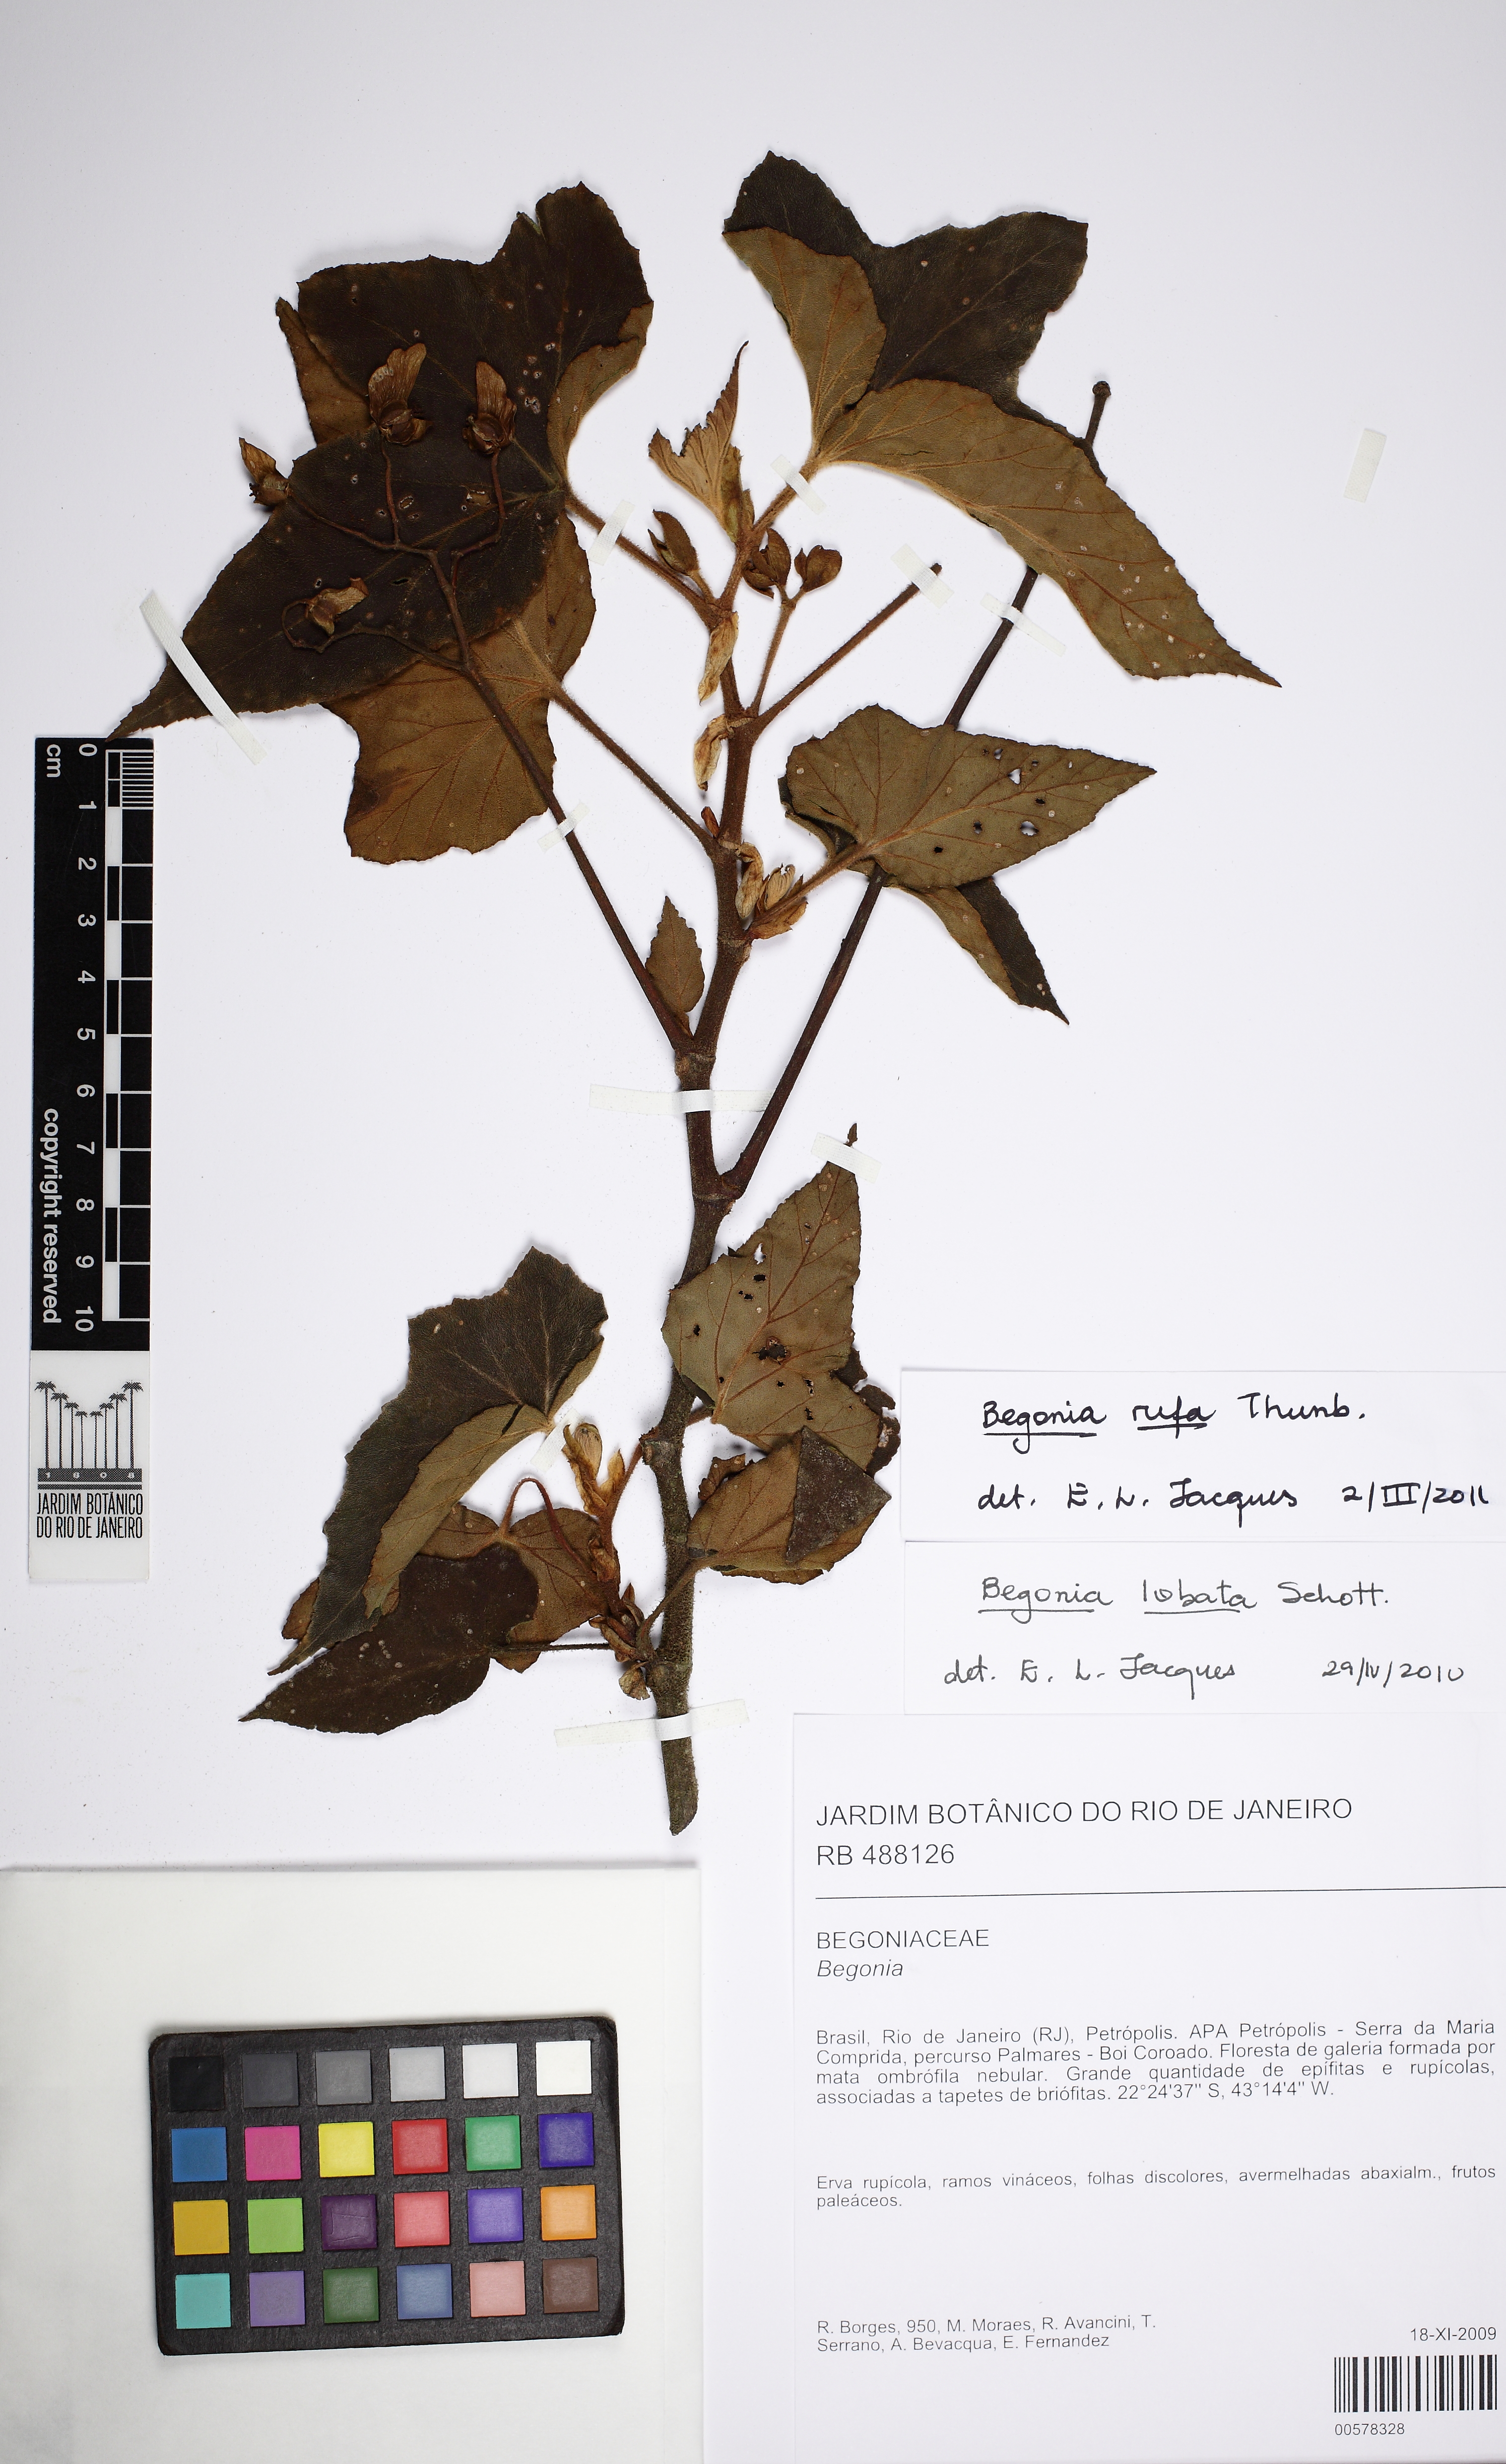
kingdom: Plantae
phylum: Tracheophyta
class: Magnoliopsida
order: Cucurbitales
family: Begoniaceae
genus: Begonia
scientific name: Begonia rufa
